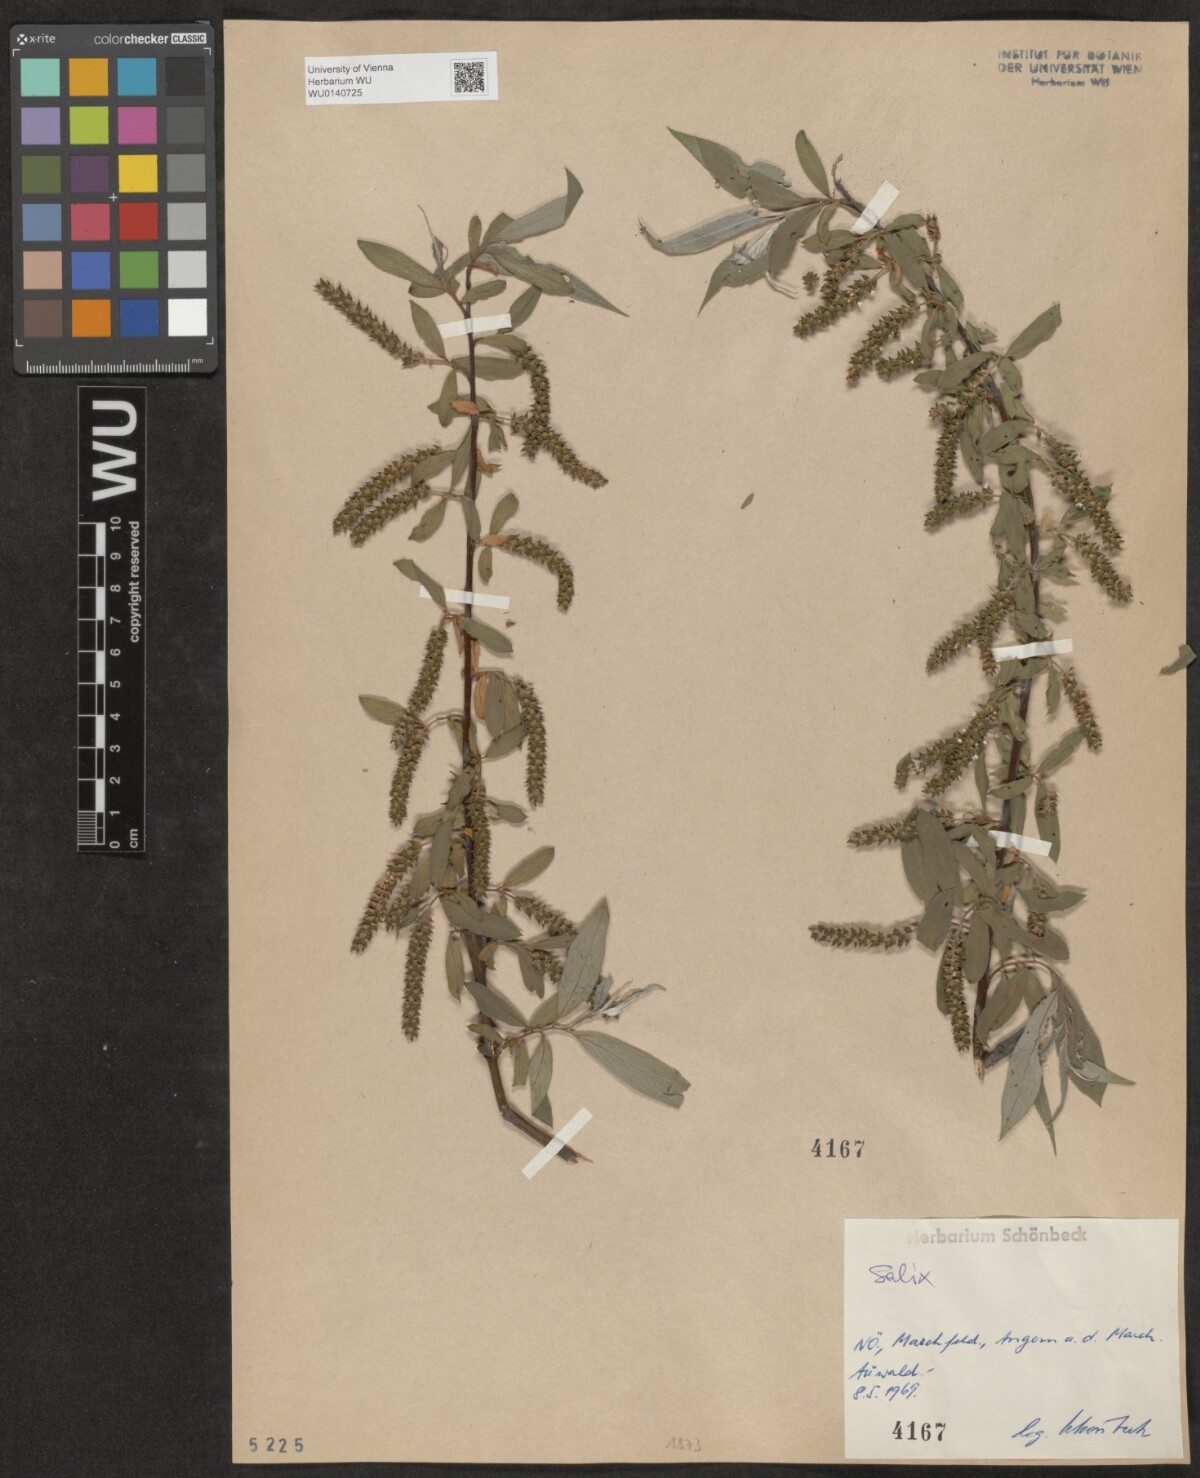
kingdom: Plantae
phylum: Tracheophyta
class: Magnoliopsida
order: Malpighiales
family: Salicaceae
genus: Salix
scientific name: Salix
